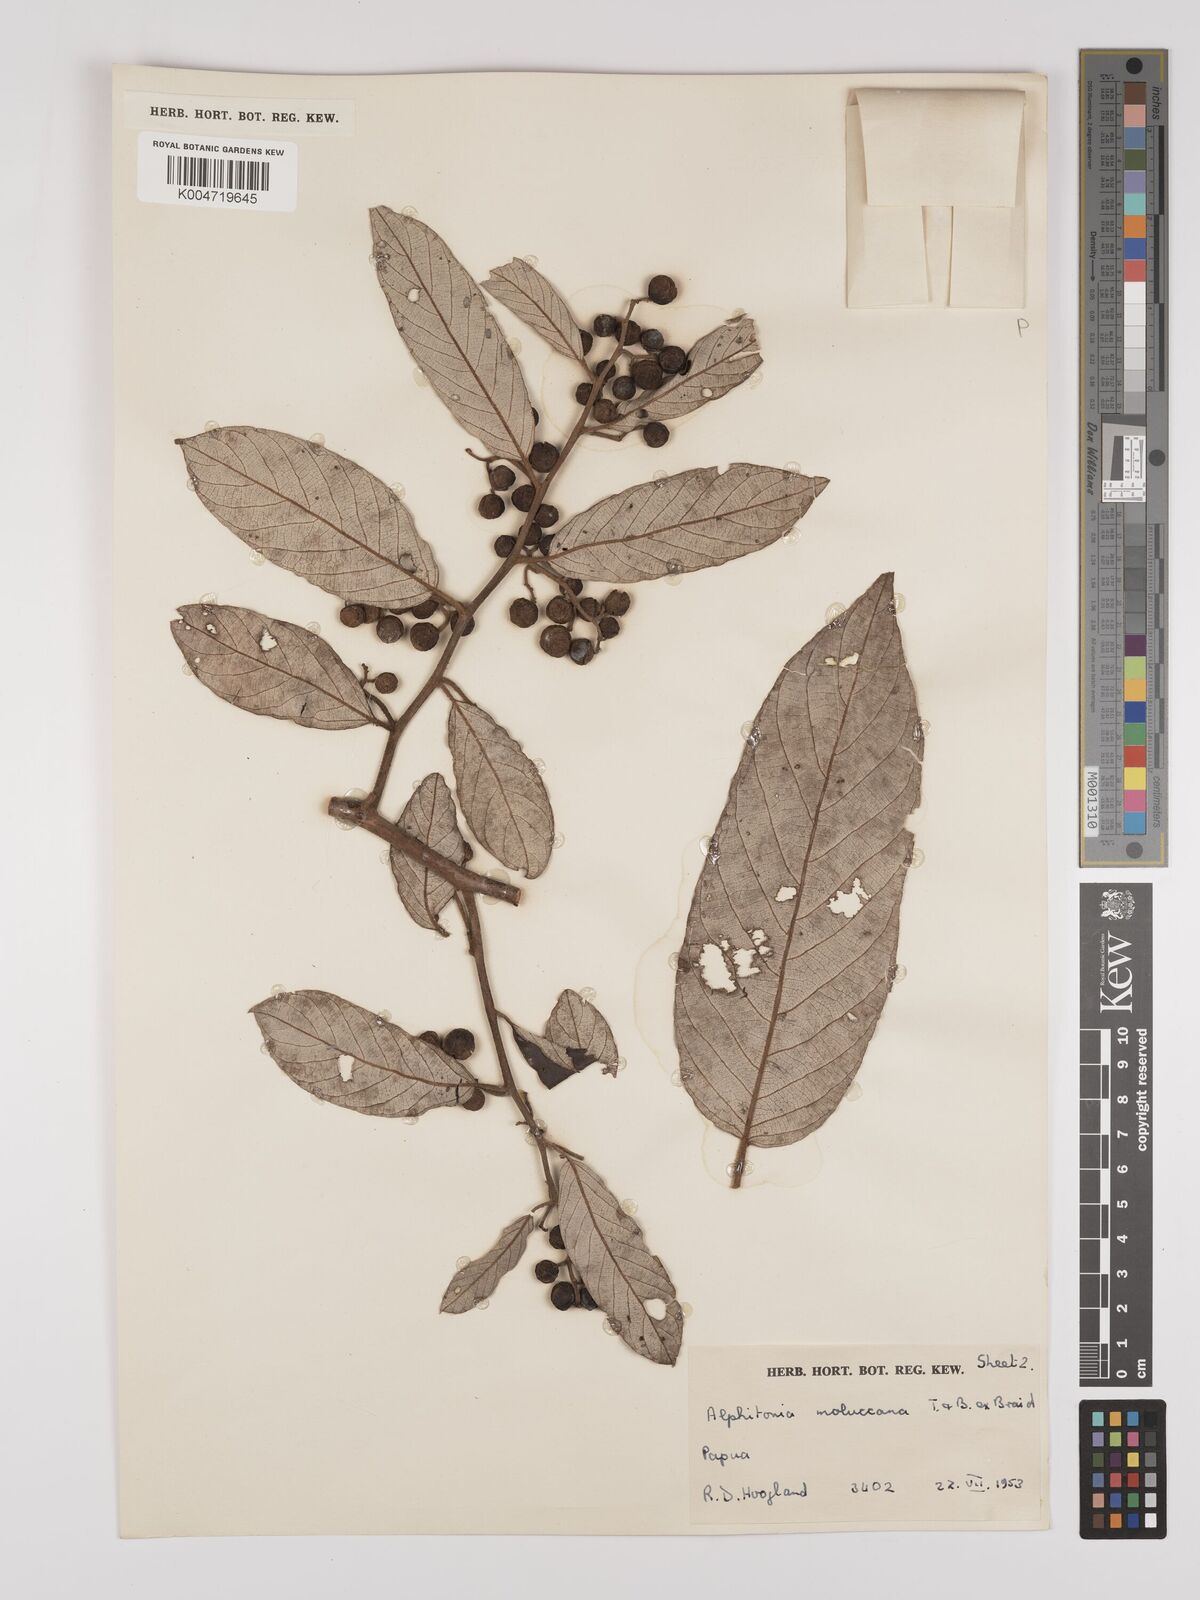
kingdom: Plantae
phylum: Tracheophyta
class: Magnoliopsida
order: Rosales
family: Rhamnaceae
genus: Alphitonia
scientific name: Alphitonia incana
